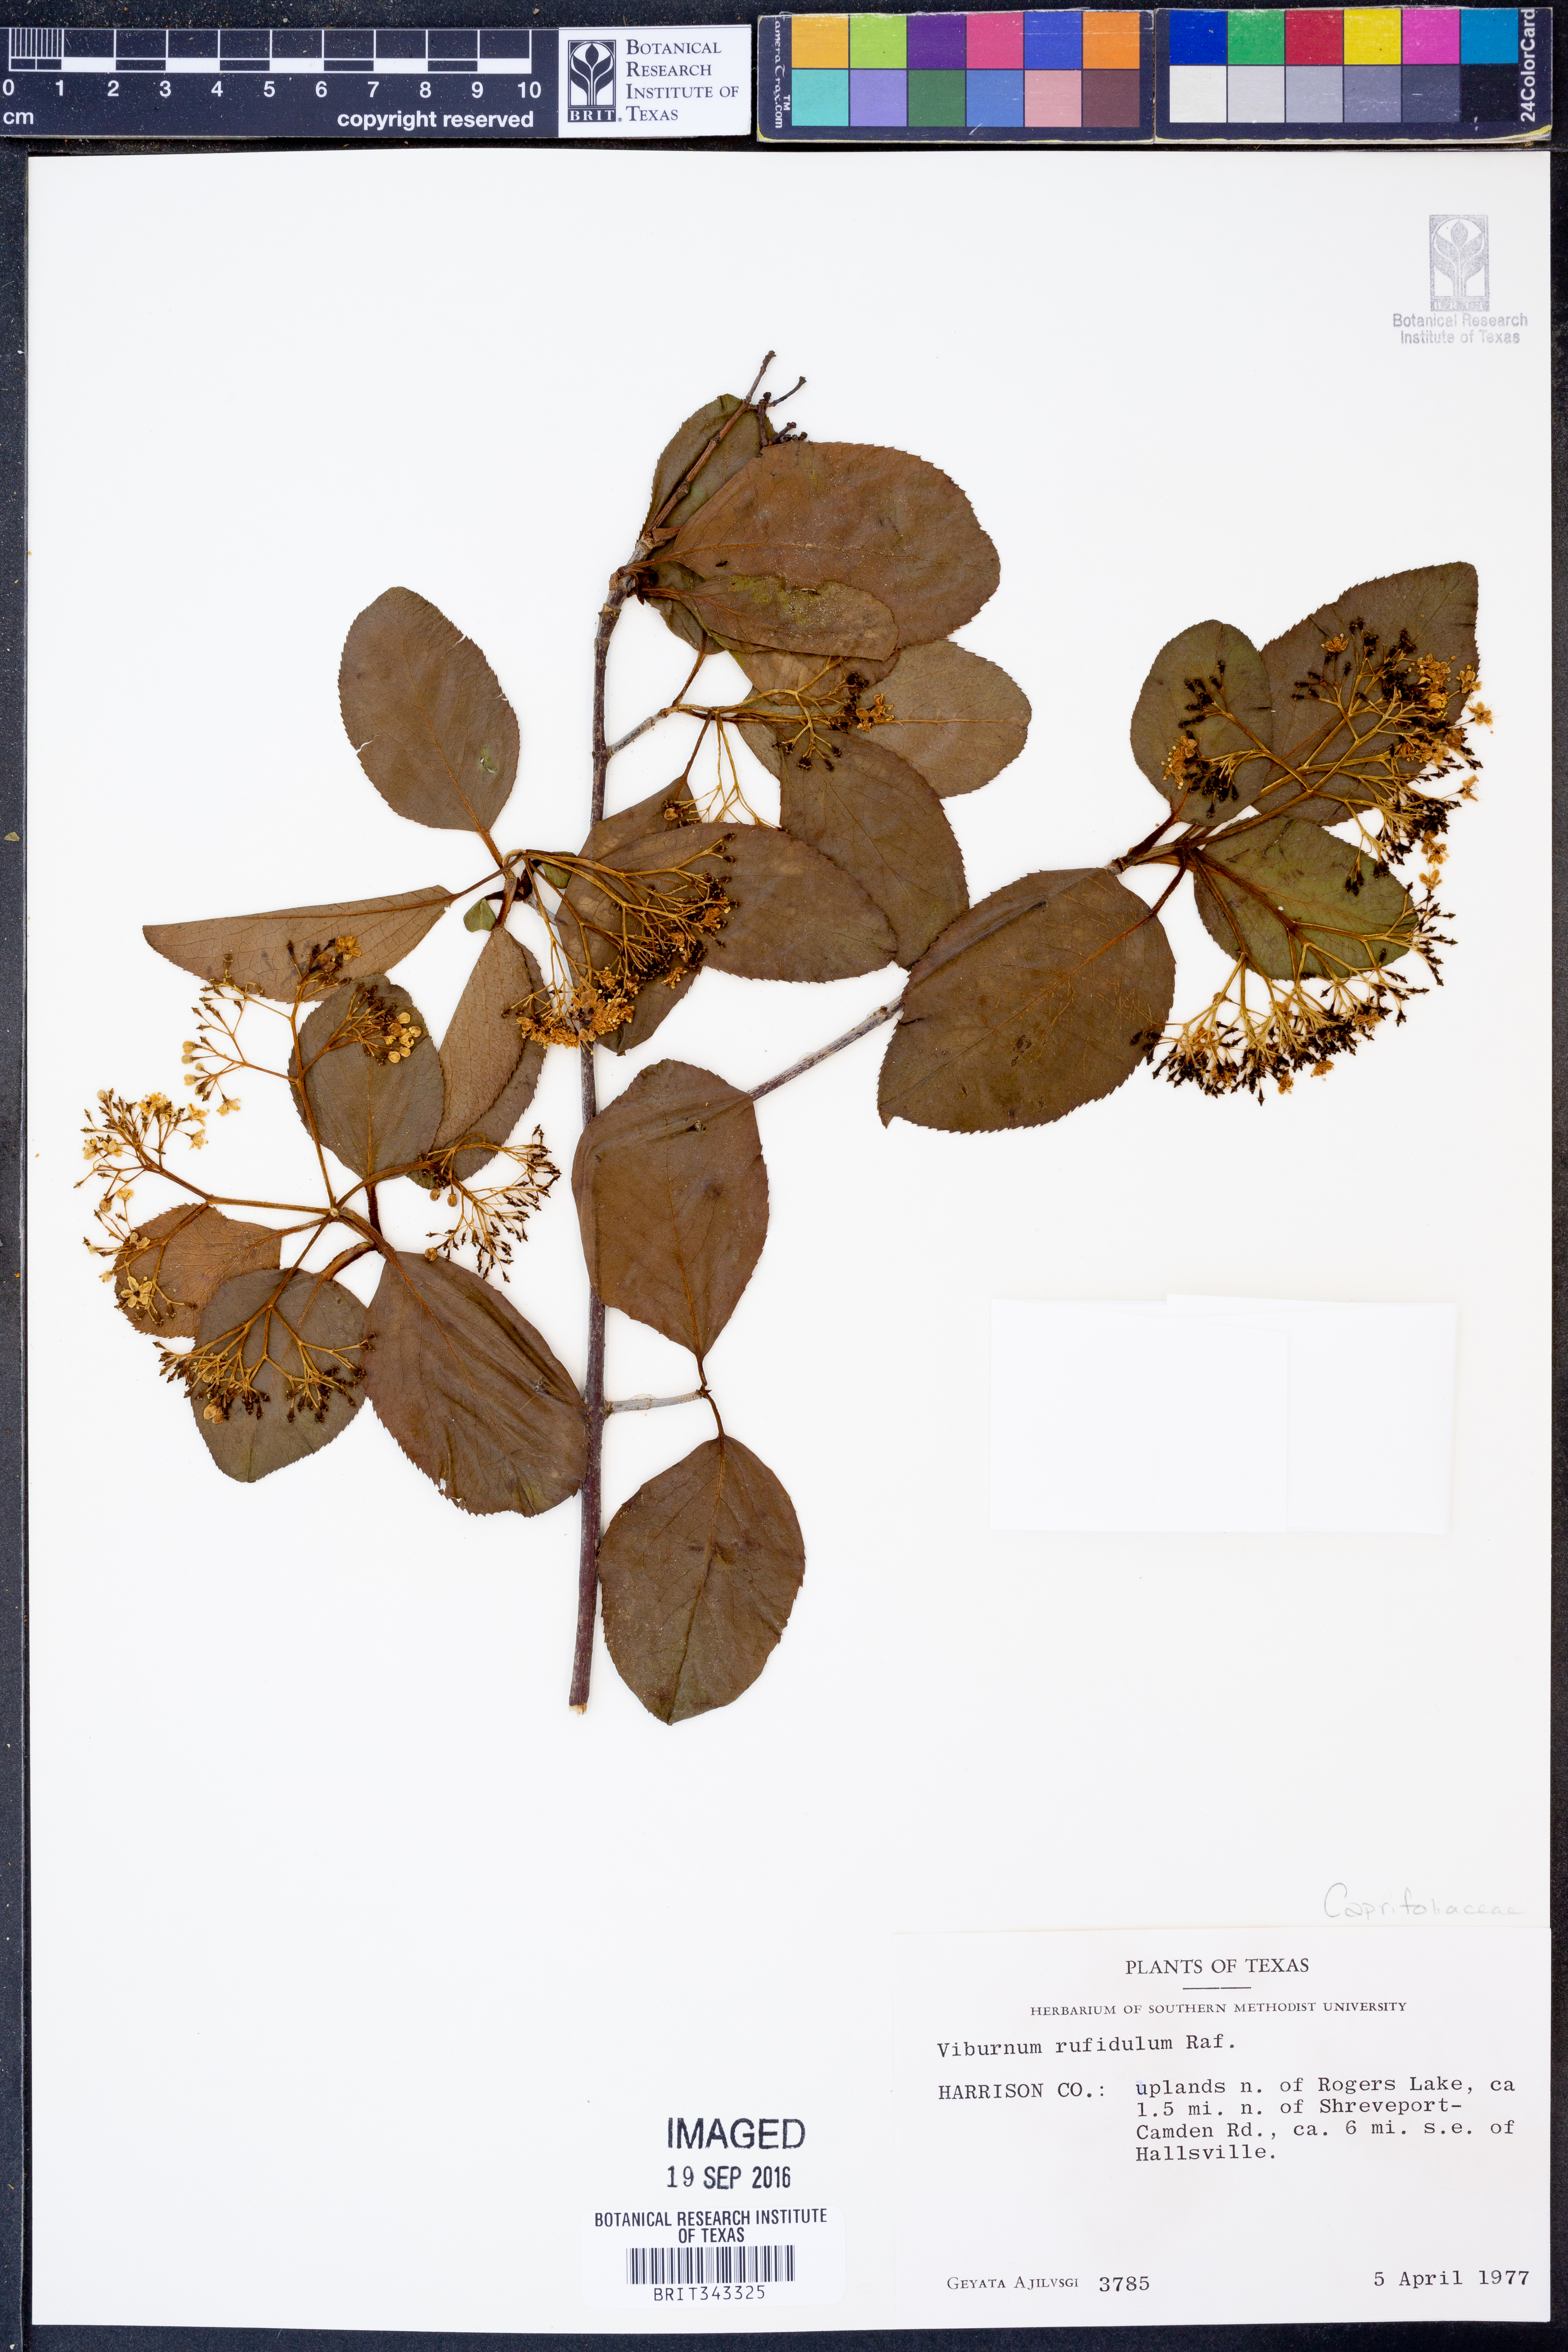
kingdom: Plantae
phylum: Tracheophyta
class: Magnoliopsida
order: Dipsacales
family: Caprifoliaceae
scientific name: Caprifoliaceae
